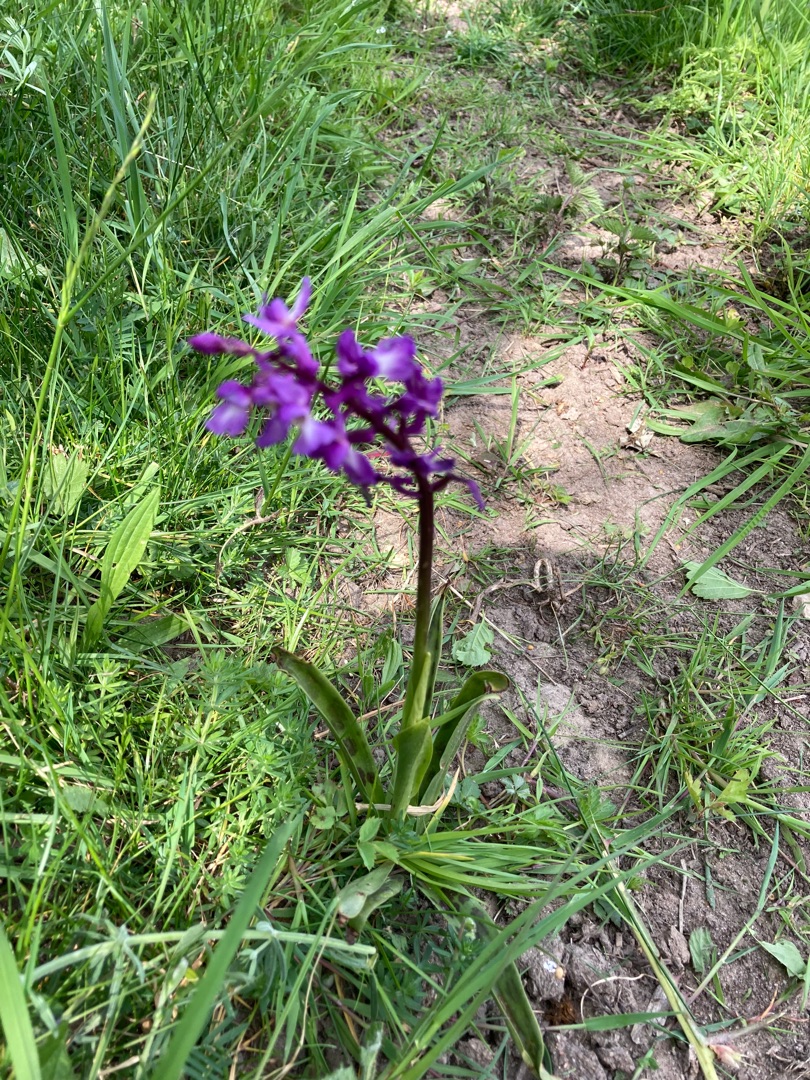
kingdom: Plantae
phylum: Tracheophyta
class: Liliopsida
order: Asparagales
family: Orchidaceae
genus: Orchis
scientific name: Orchis mascula
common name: Tyndakset gøgeurt
